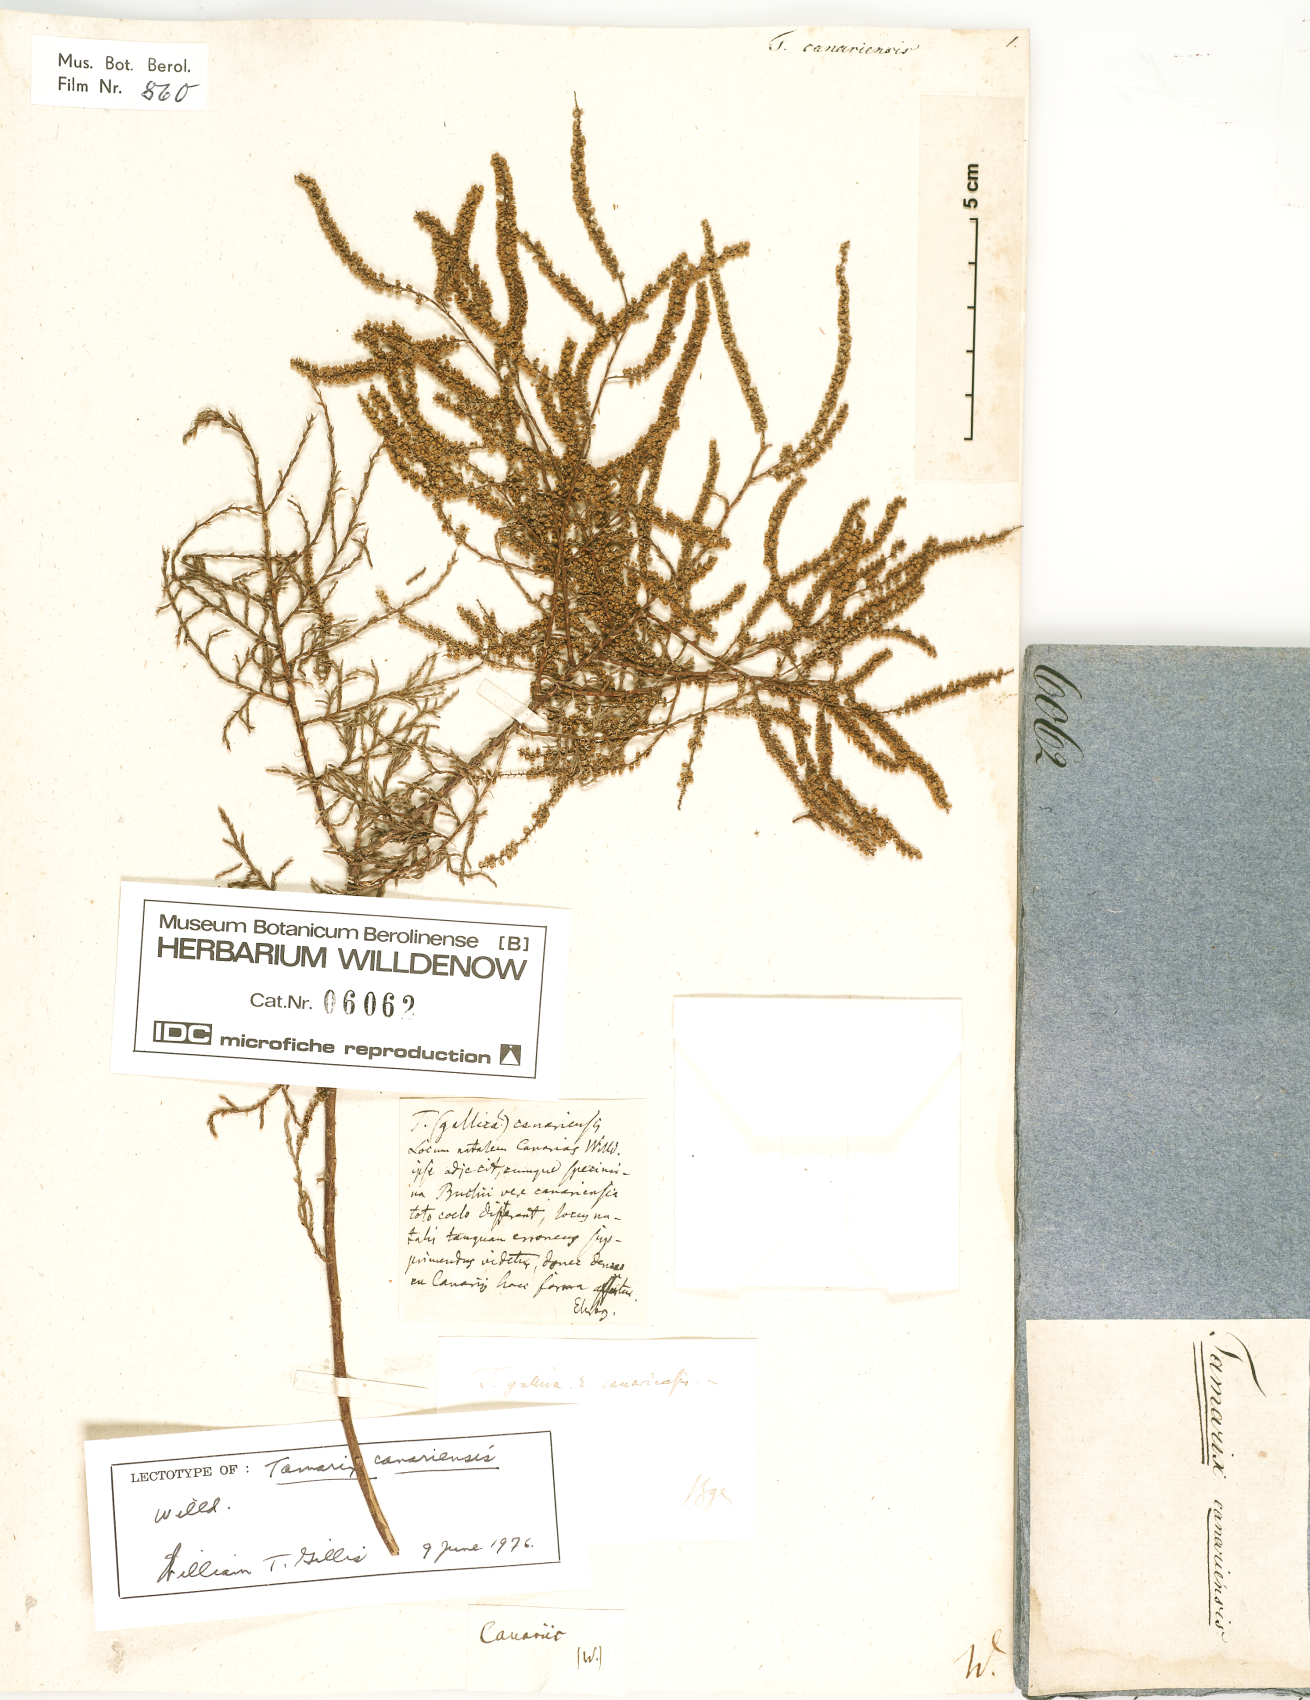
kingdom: Plantae
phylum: Tracheophyta
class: Magnoliopsida
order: Caryophyllales
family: Tamaricaceae
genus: Tamarix
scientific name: Tamarix canariensis
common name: Canary island tamarisk
